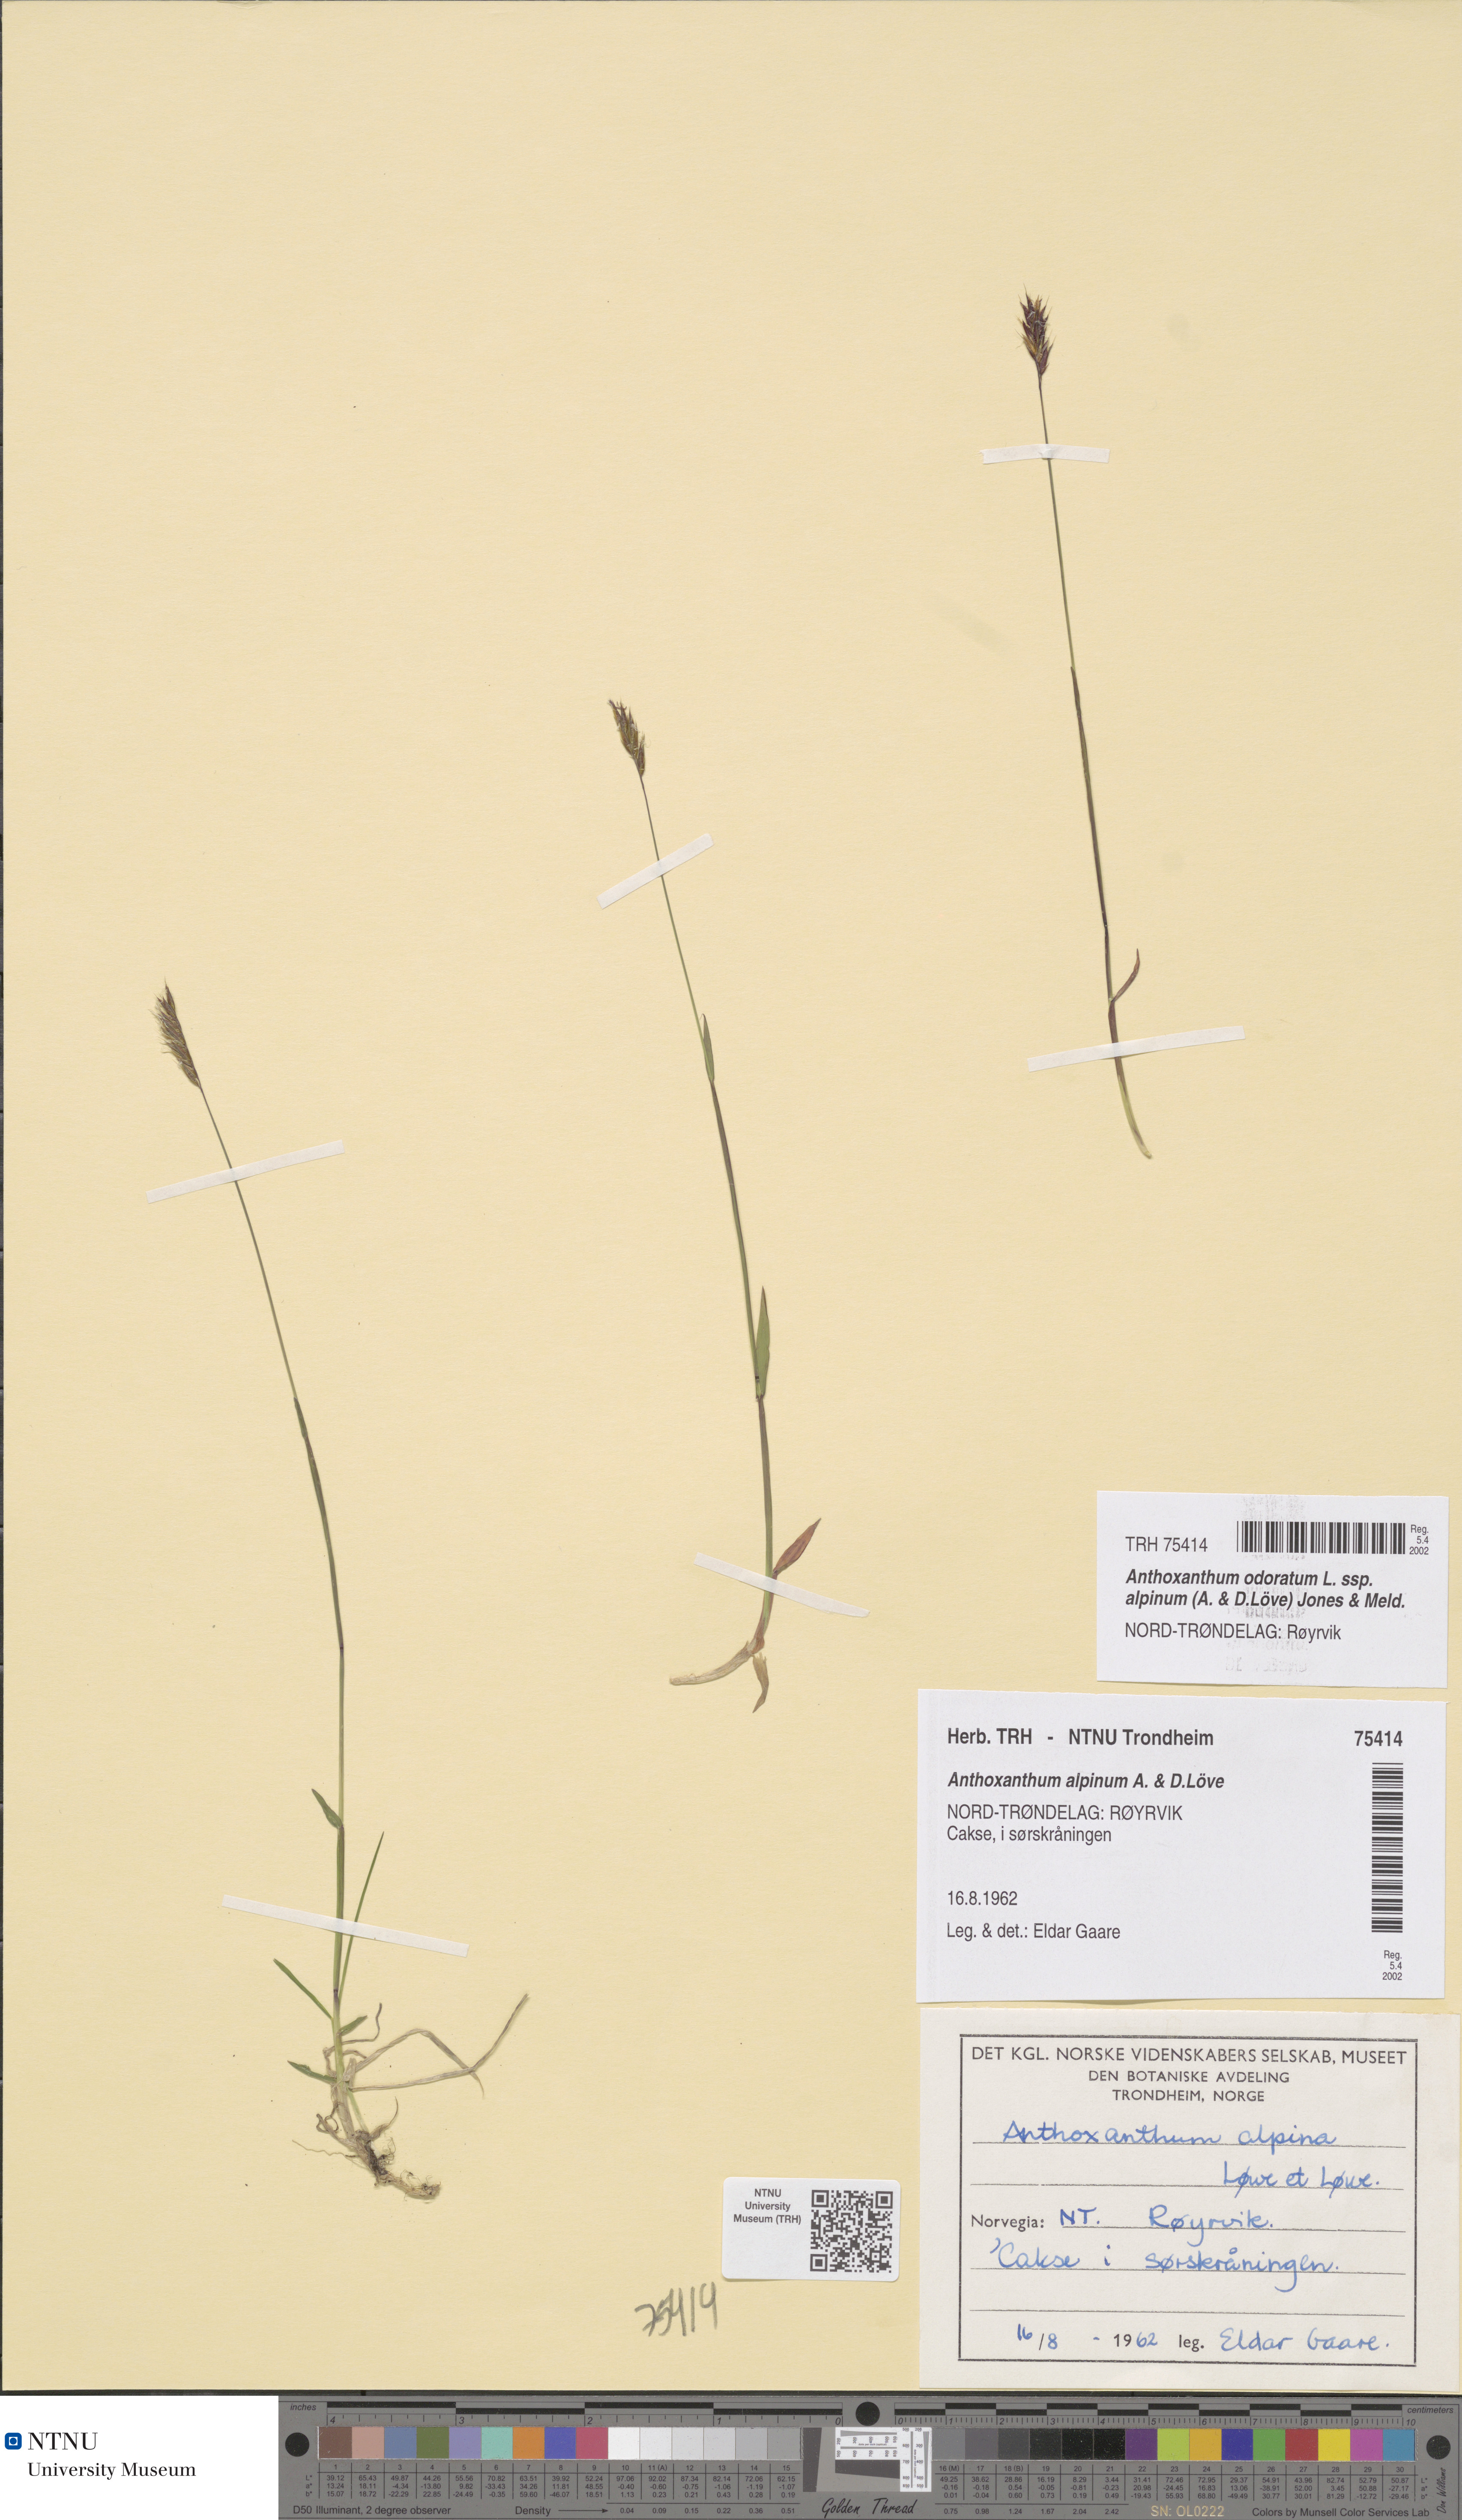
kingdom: Plantae
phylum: Tracheophyta
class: Liliopsida
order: Poales
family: Poaceae
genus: Anthoxanthum
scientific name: Anthoxanthum nipponicum
